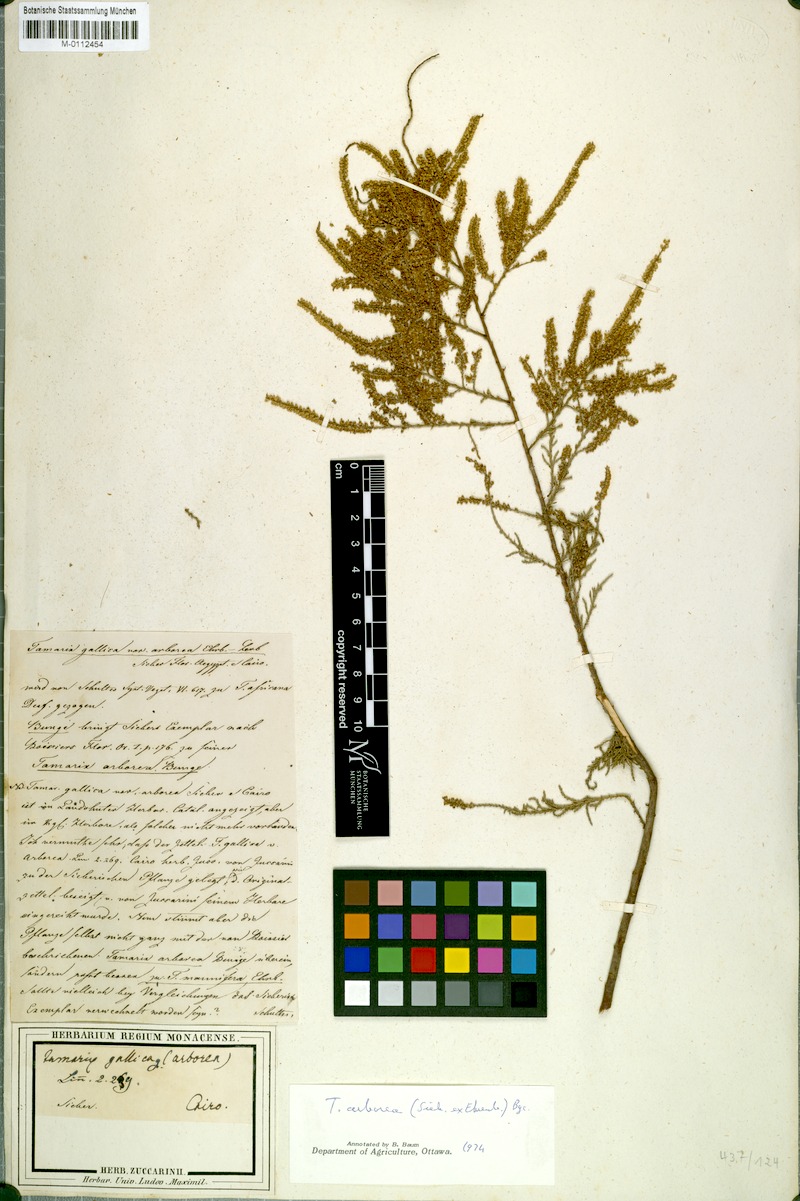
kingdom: Plantae
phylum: Tracheophyta
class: Magnoliopsida
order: Caryophyllales
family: Tamaricaceae
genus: Tamarix
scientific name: Tamarix
